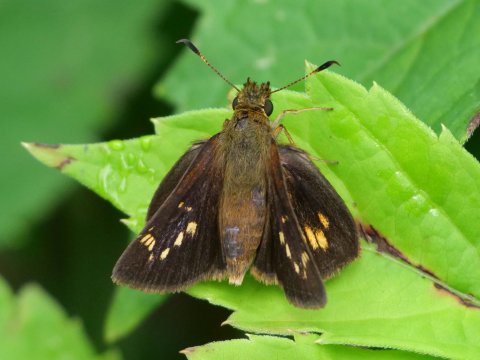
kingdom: Animalia
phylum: Arthropoda
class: Insecta
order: Lepidoptera
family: Hesperiidae
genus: Poanes
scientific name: Poanes massasoit
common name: Mulberry Wing
